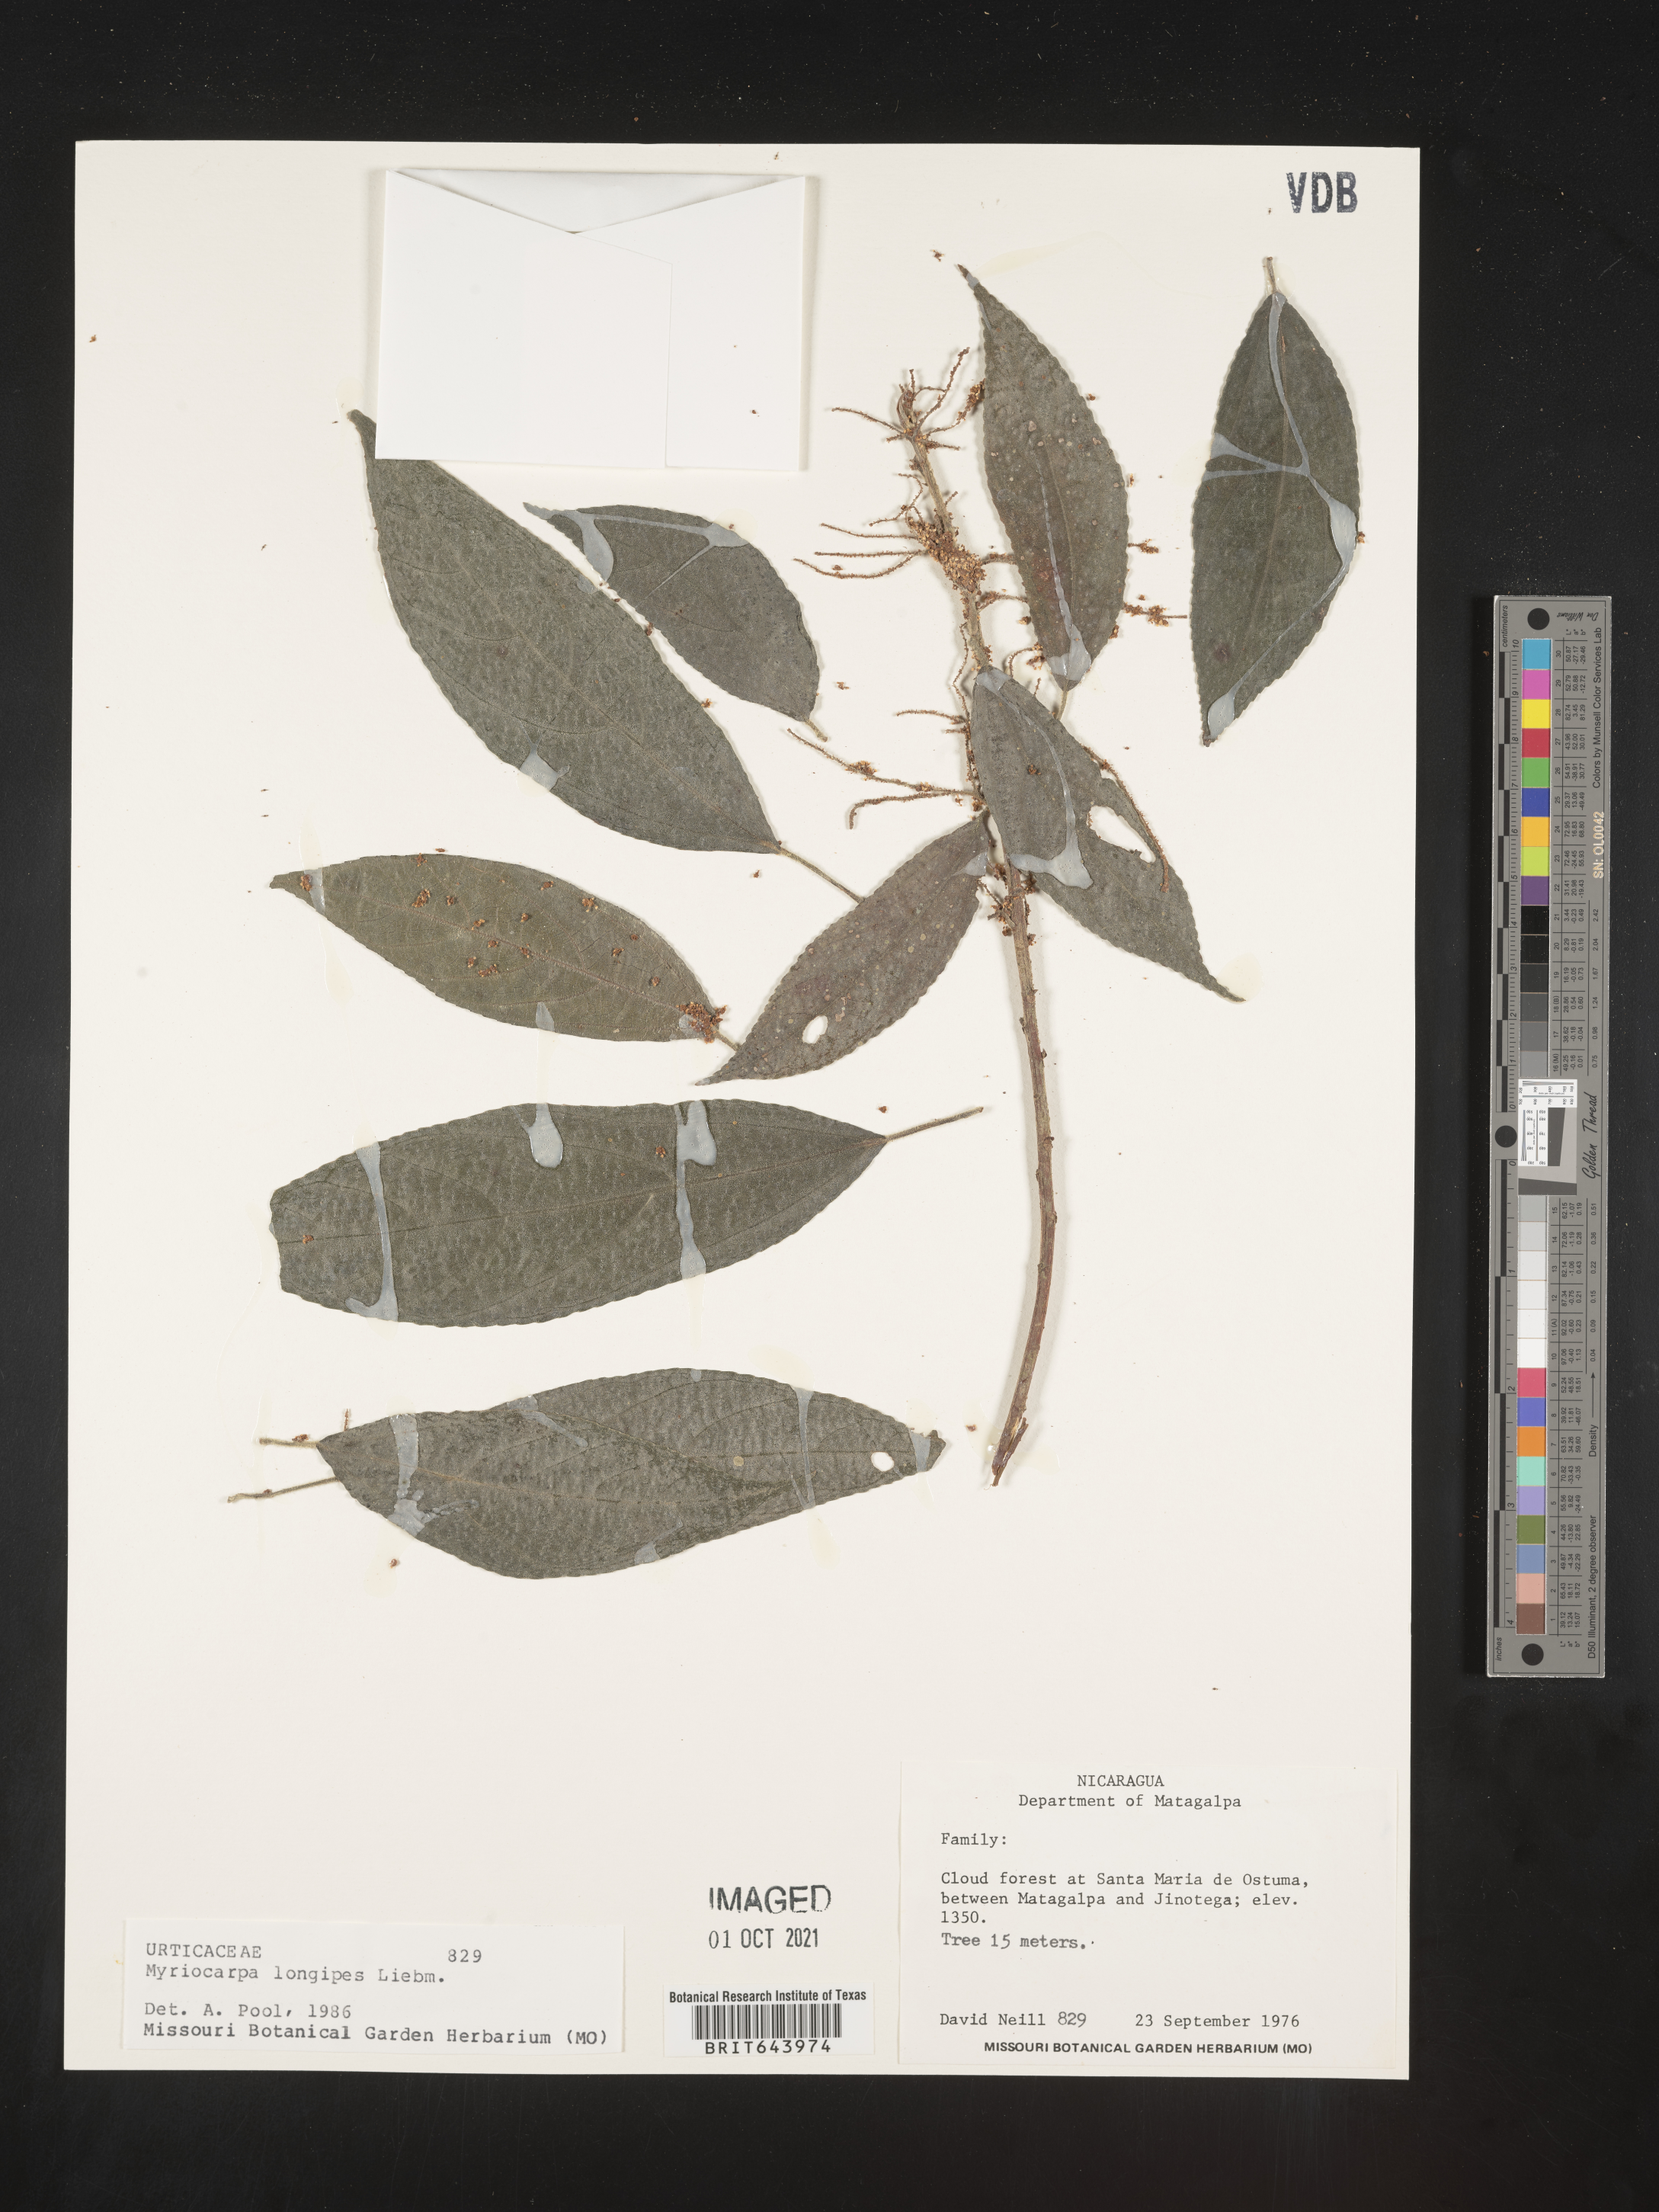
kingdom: Plantae
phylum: Tracheophyta
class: Magnoliopsida
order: Rosales
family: Urticaceae
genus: Myriocarpa
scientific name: Myriocarpa
